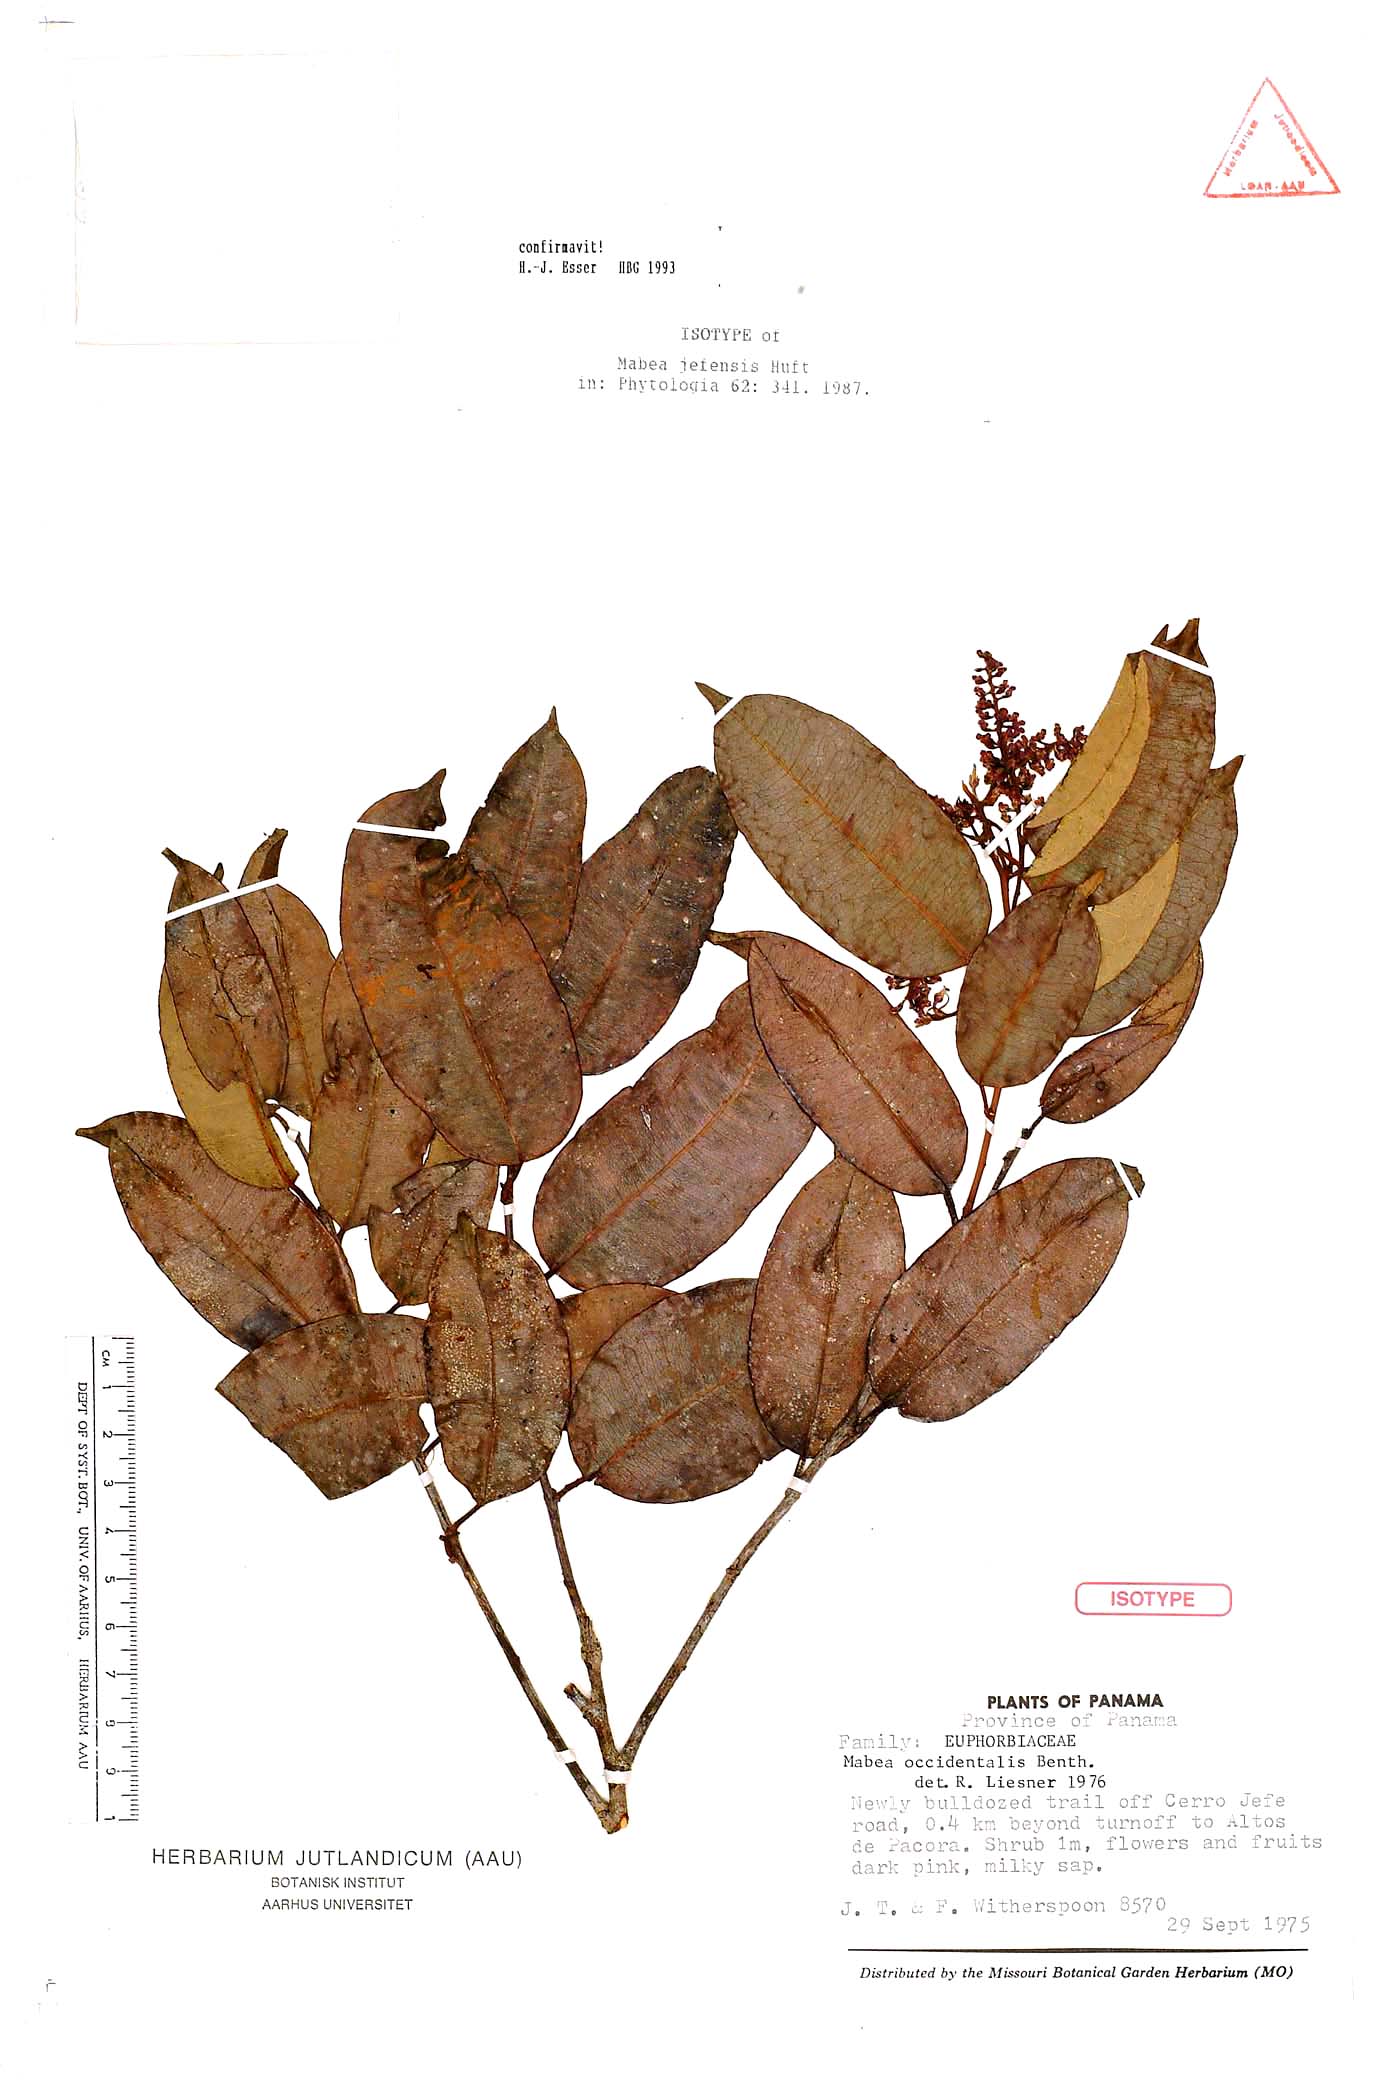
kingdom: Plantae
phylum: Tracheophyta
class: Magnoliopsida
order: Malpighiales
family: Euphorbiaceae
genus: Mabea
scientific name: Mabea jefensis
